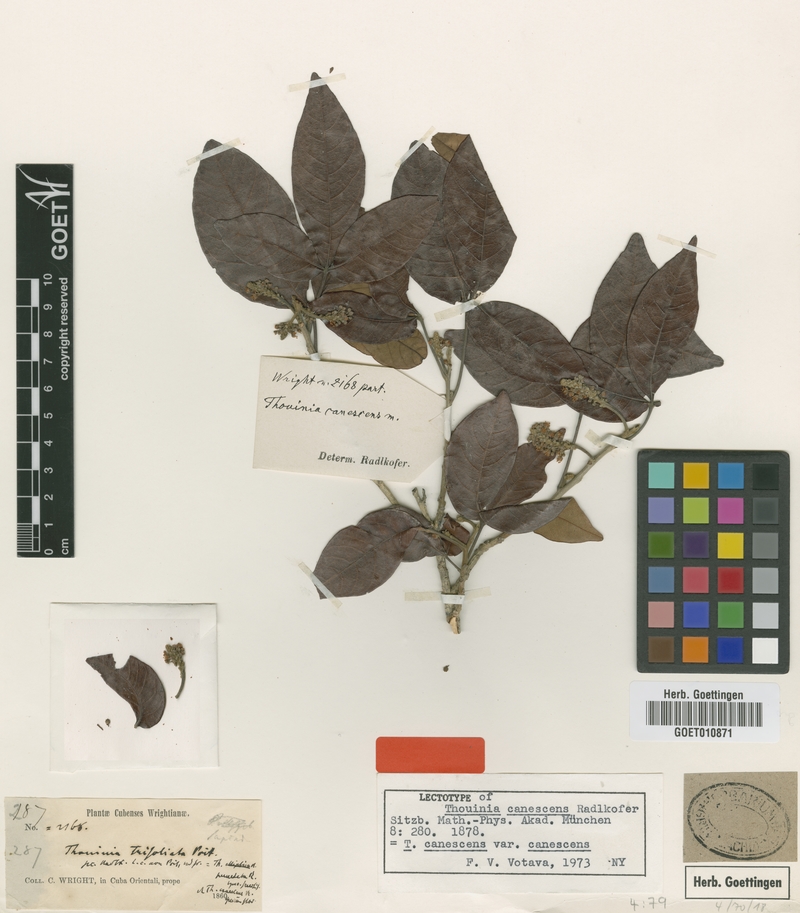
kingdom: Plantae
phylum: Tracheophyta
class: Magnoliopsida
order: Sapindales
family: Sapindaceae
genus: Thouinia
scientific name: Thouinia canescens
